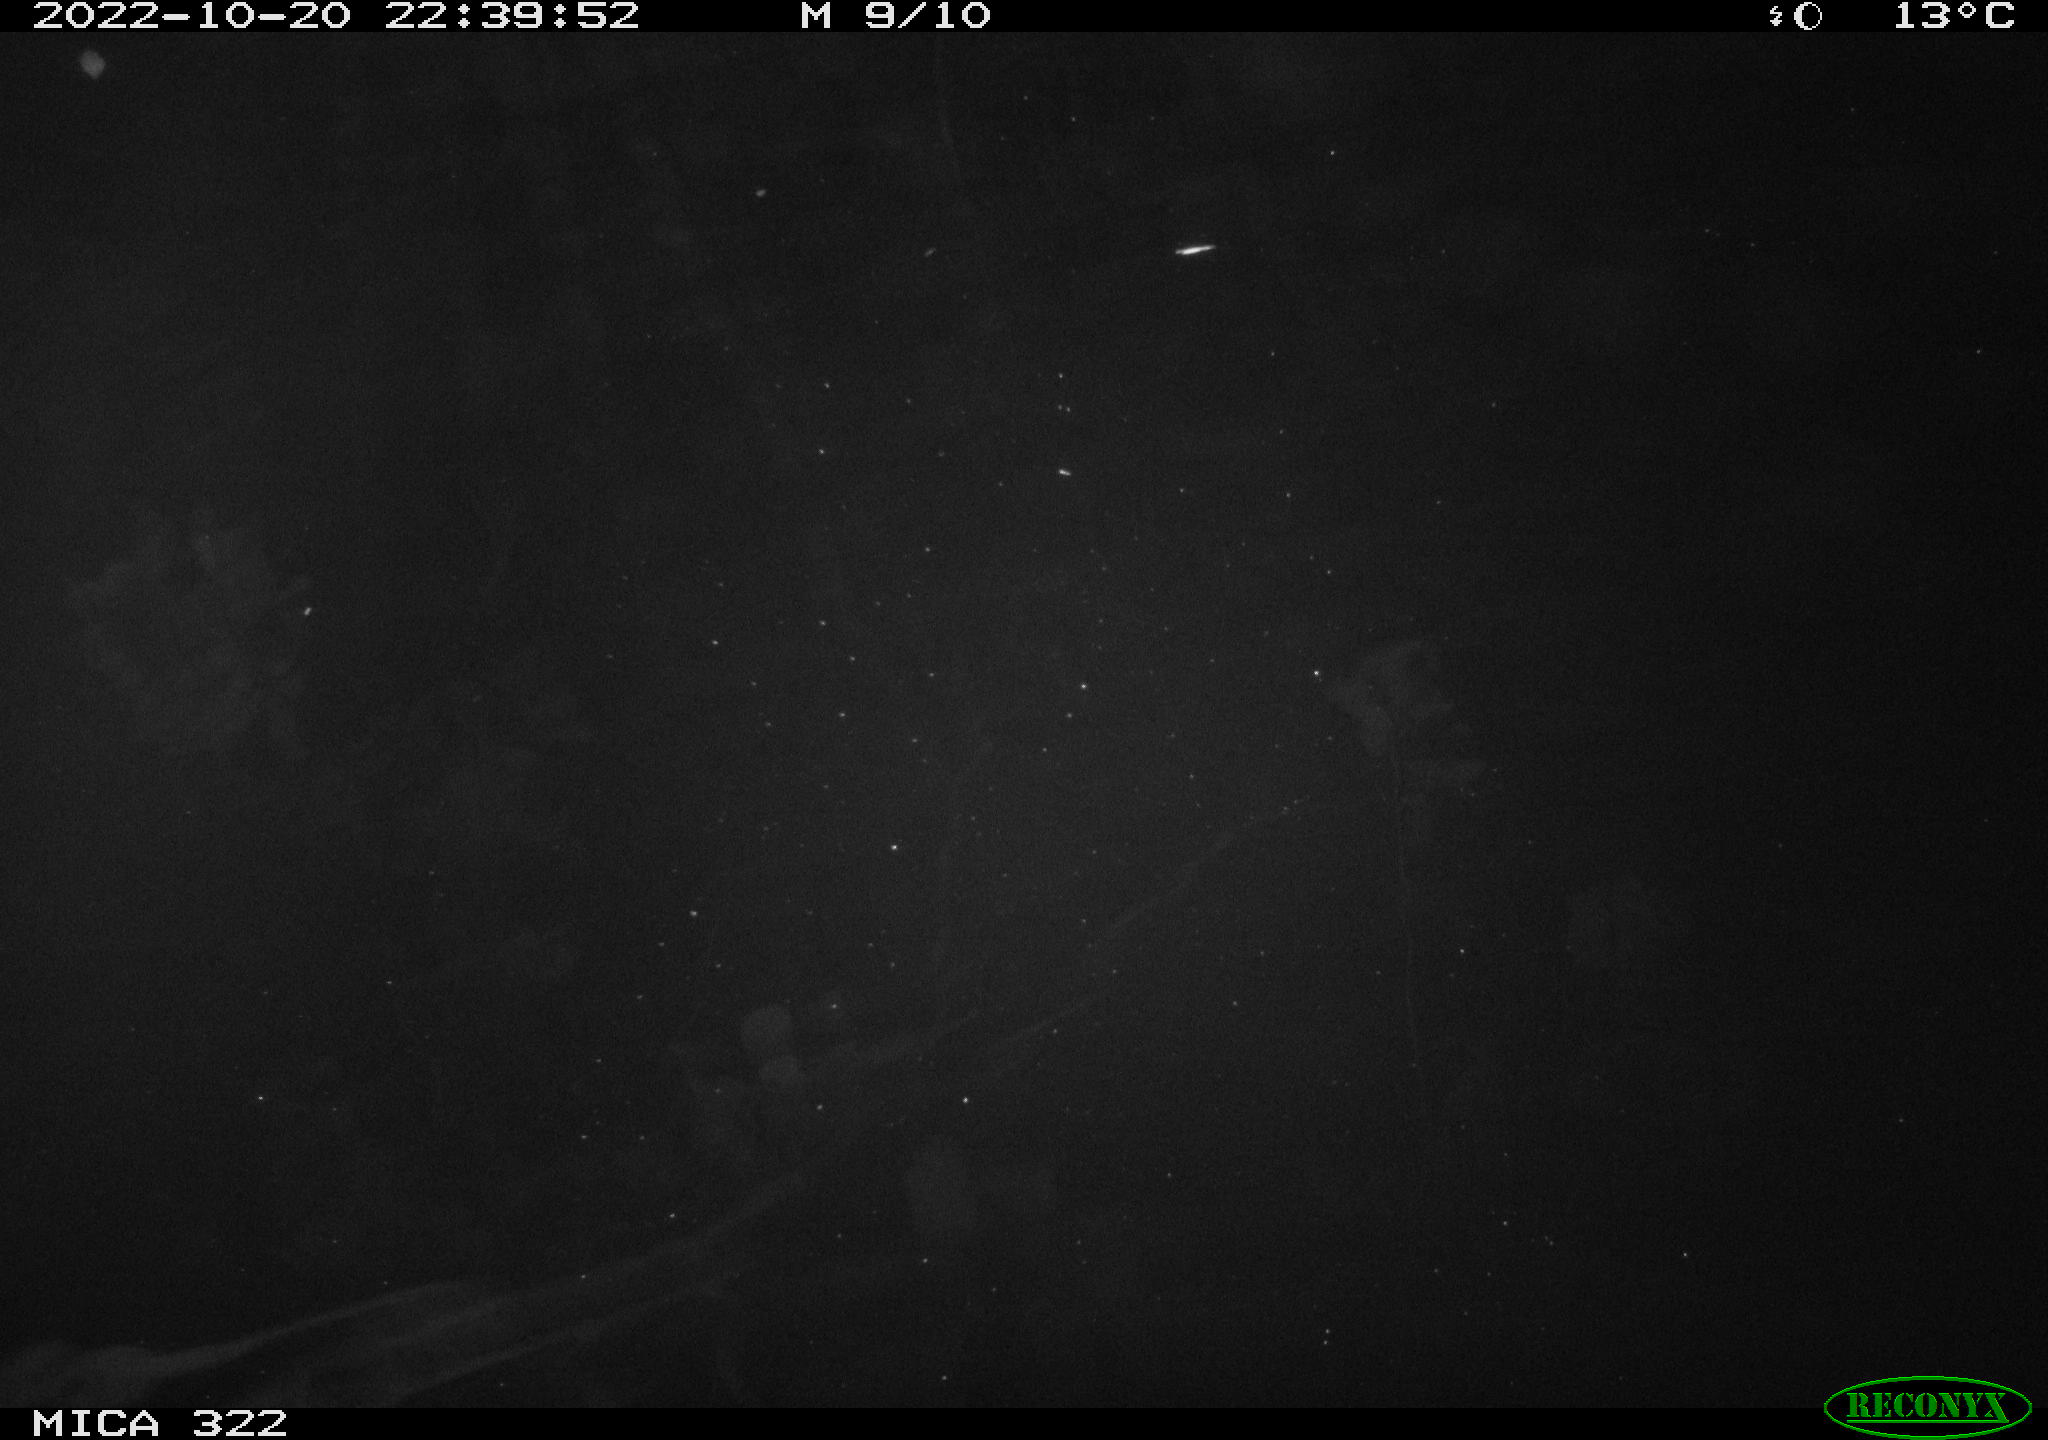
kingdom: Animalia
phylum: Chordata
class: Mammalia
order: Rodentia
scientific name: Rodentia
